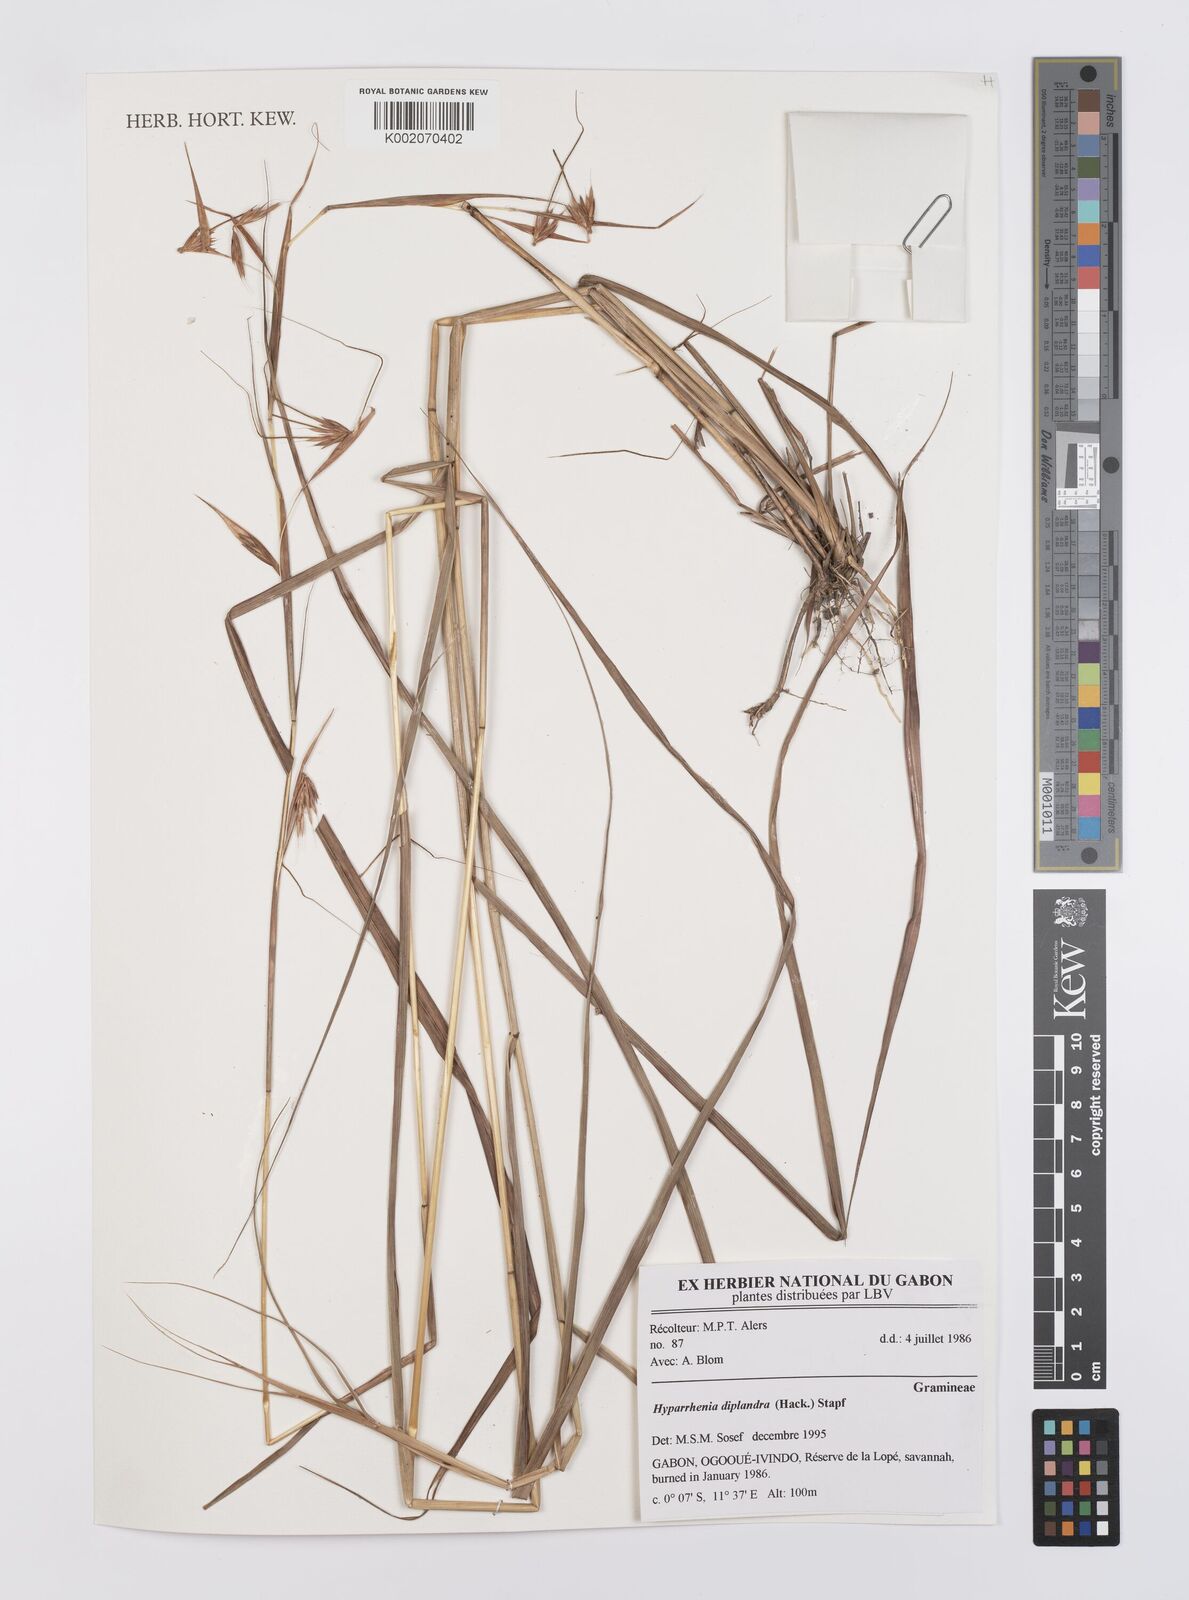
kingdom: Plantae
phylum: Tracheophyta
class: Liliopsida
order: Poales
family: Poaceae
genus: Hyparrhenia
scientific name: Hyparrhenia diplandra
